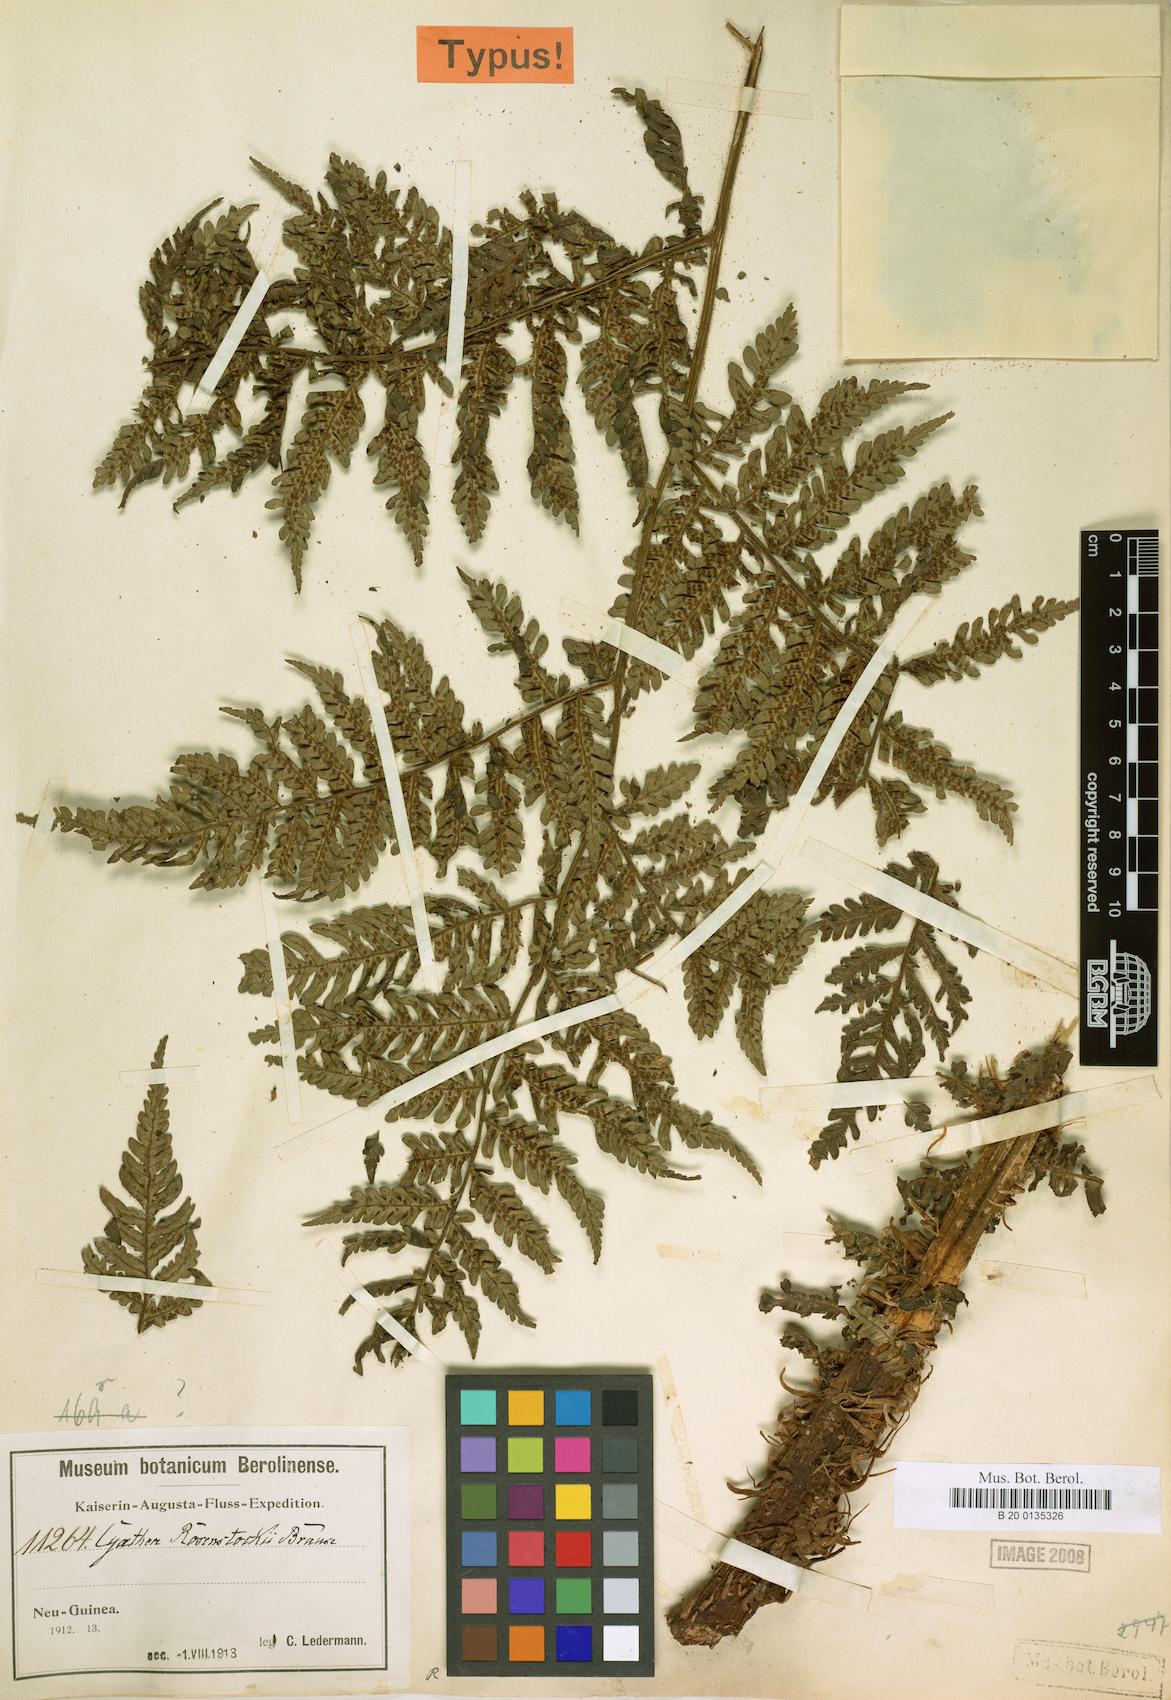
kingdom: Plantae
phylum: Tracheophyta
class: Polypodiopsida
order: Cyatheales
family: Cyatheaceae
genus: Sphaeropteris
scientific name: Sphaeropteris rosenstockii
